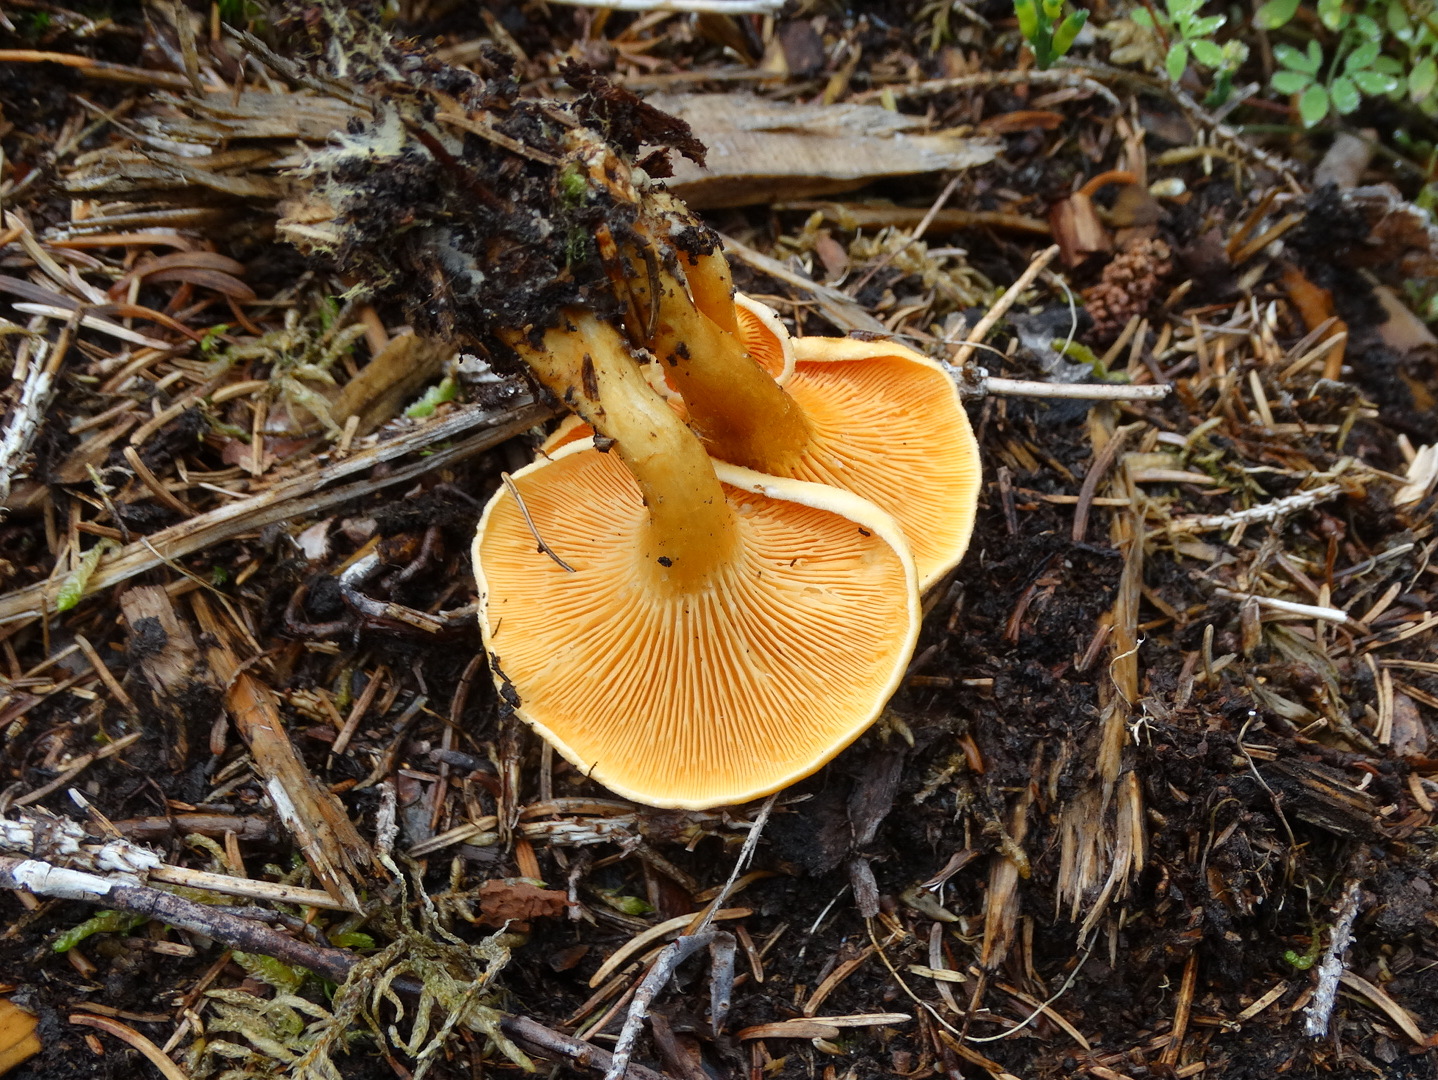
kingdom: Fungi
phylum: Basidiomycota
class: Agaricomycetes
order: Boletales
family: Hygrophoropsidaceae
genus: Hygrophoropsis
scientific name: Hygrophoropsis aurantiaca
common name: almindelig orangekantarel
